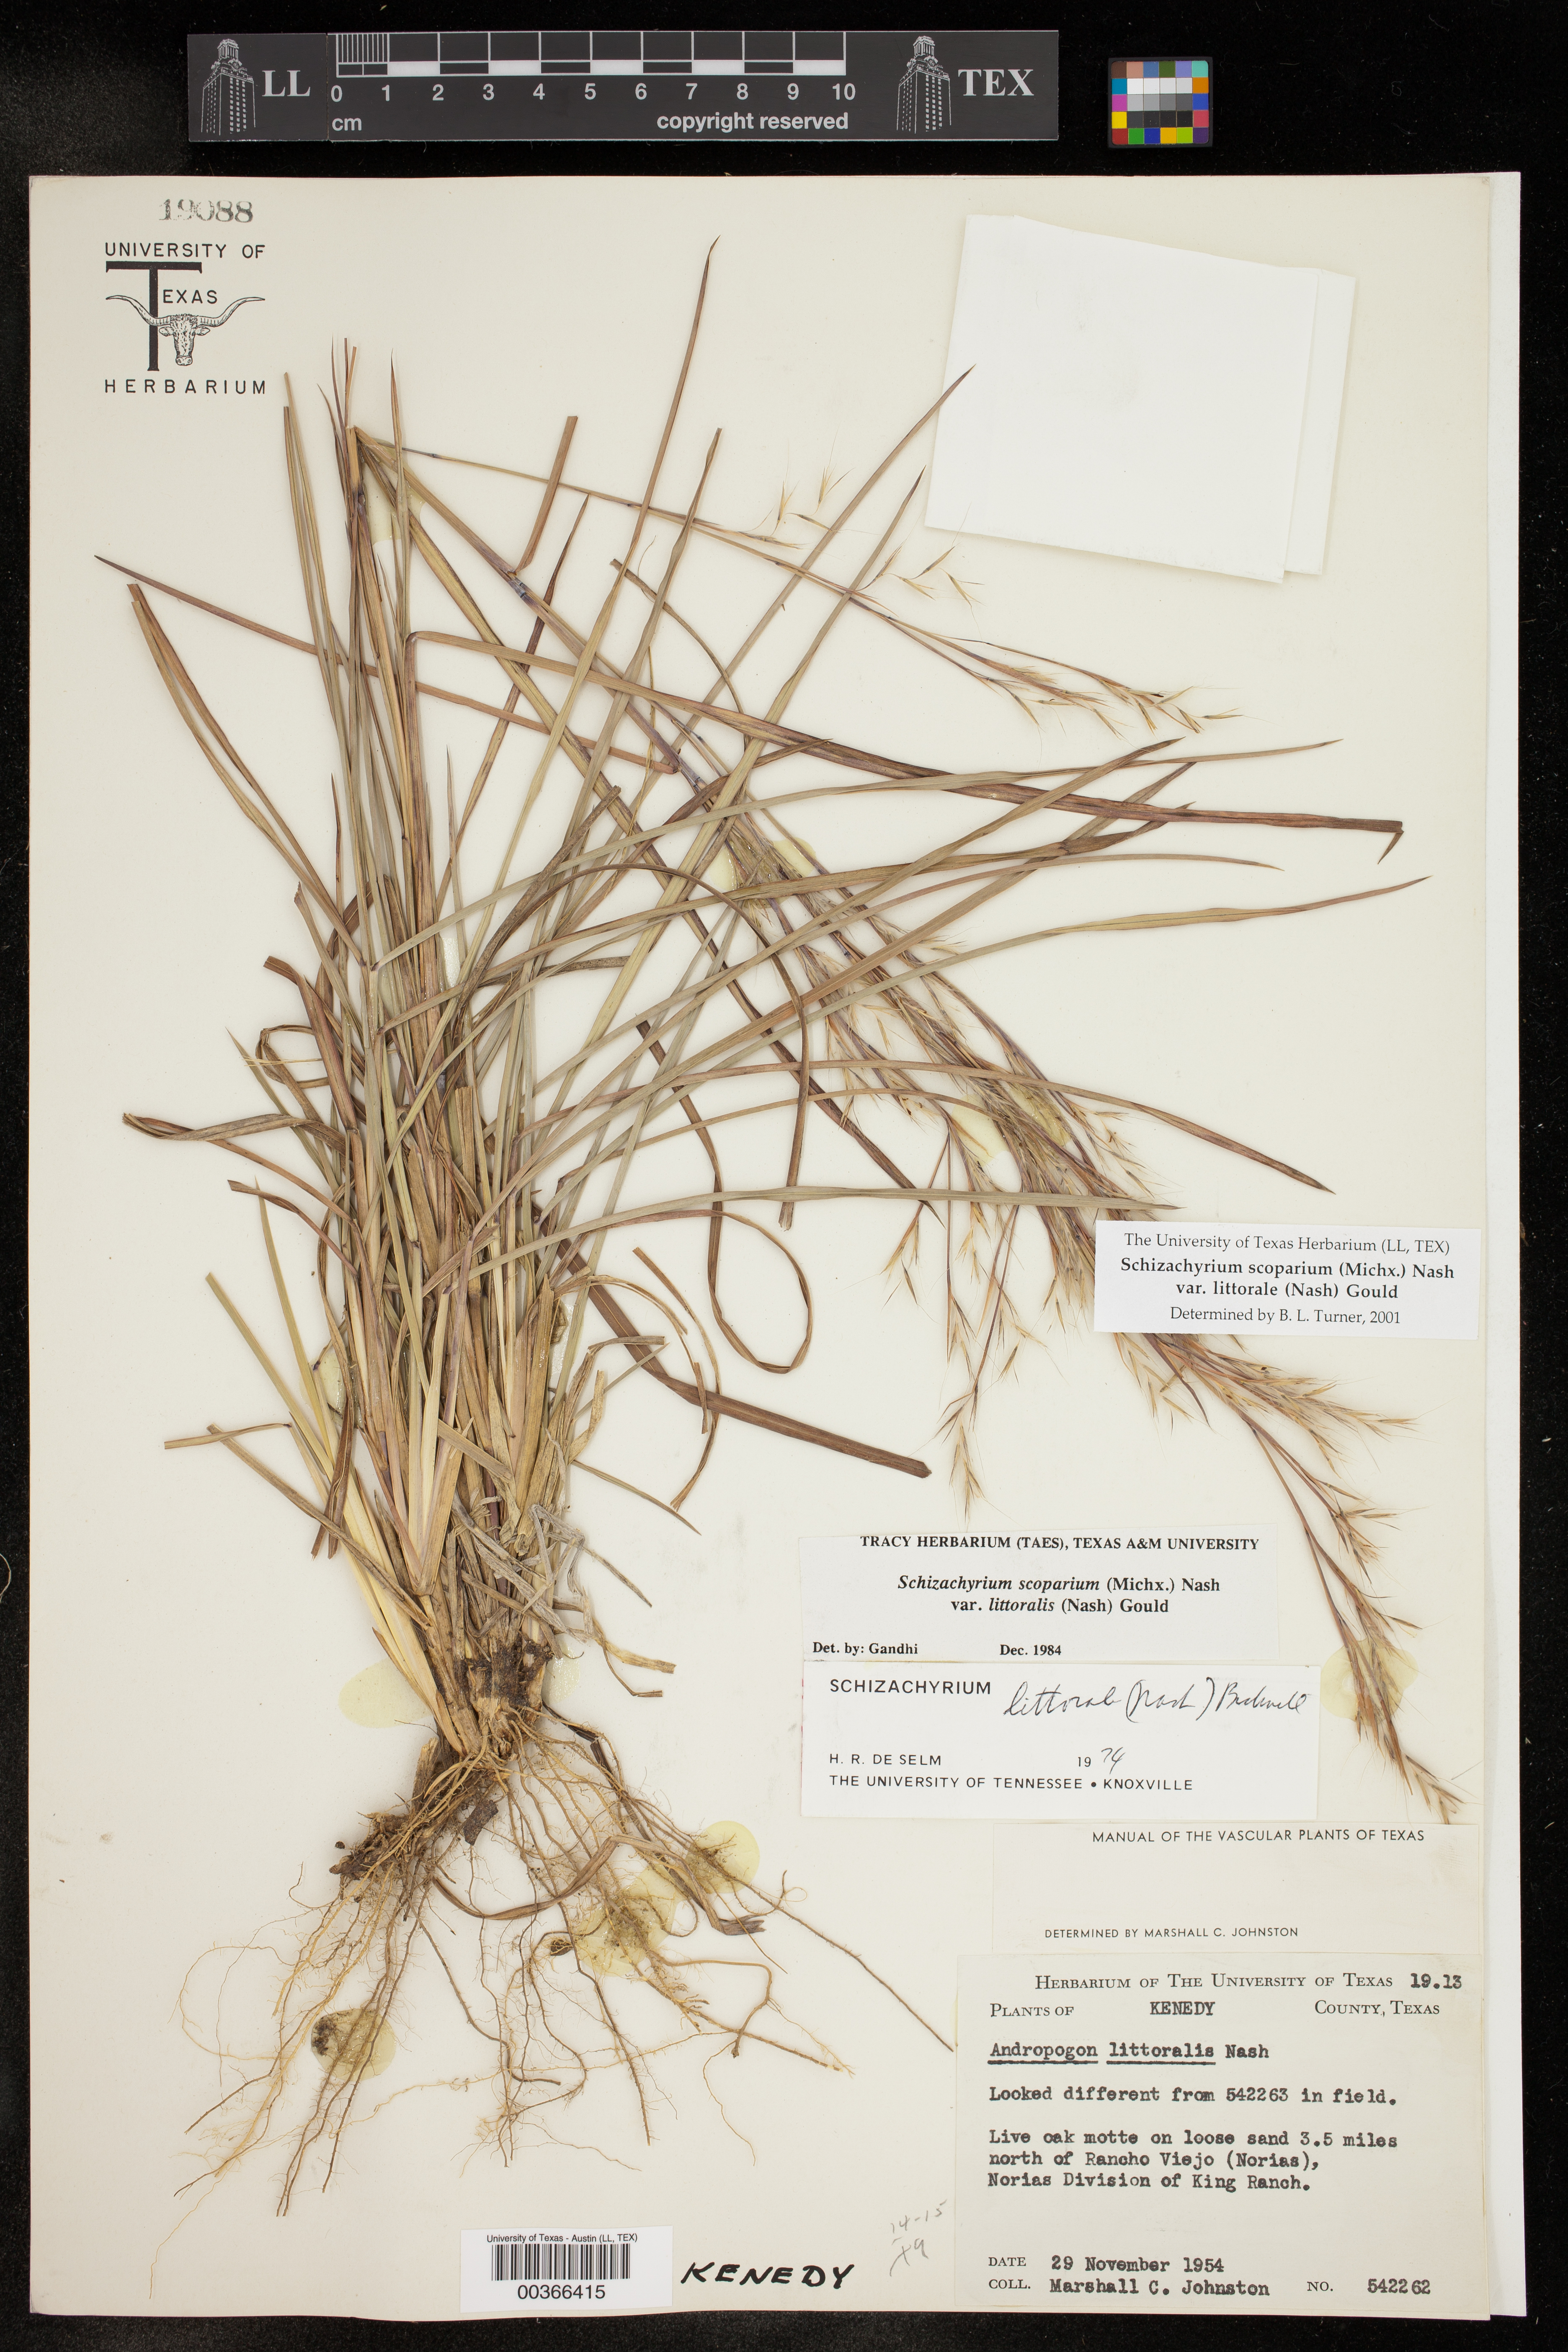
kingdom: Plantae
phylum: Tracheophyta
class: Liliopsida
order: Poales
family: Poaceae
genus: Schizachyrium
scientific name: Schizachyrium scoparium
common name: Little bluestem
